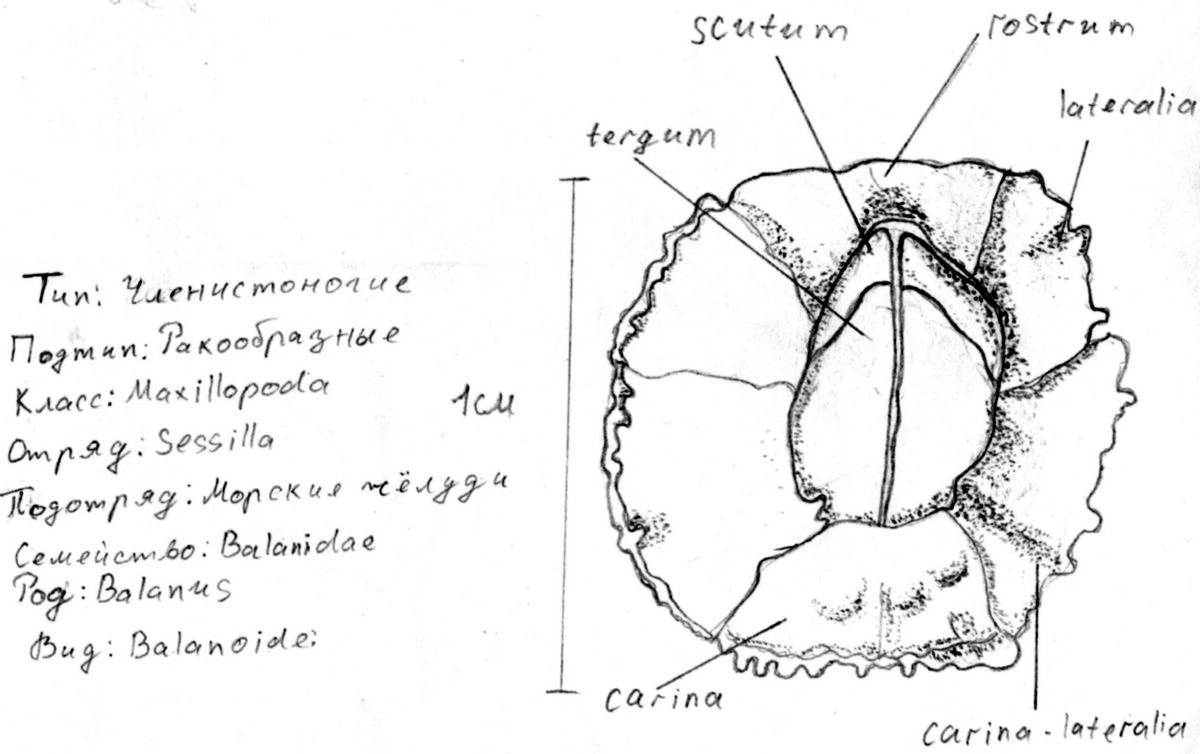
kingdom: Animalia
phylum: Arthropoda
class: Maxillopoda
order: Sessilia
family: Archaeobalanidae
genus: Semibalanus
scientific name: Semibalanus balanoides
